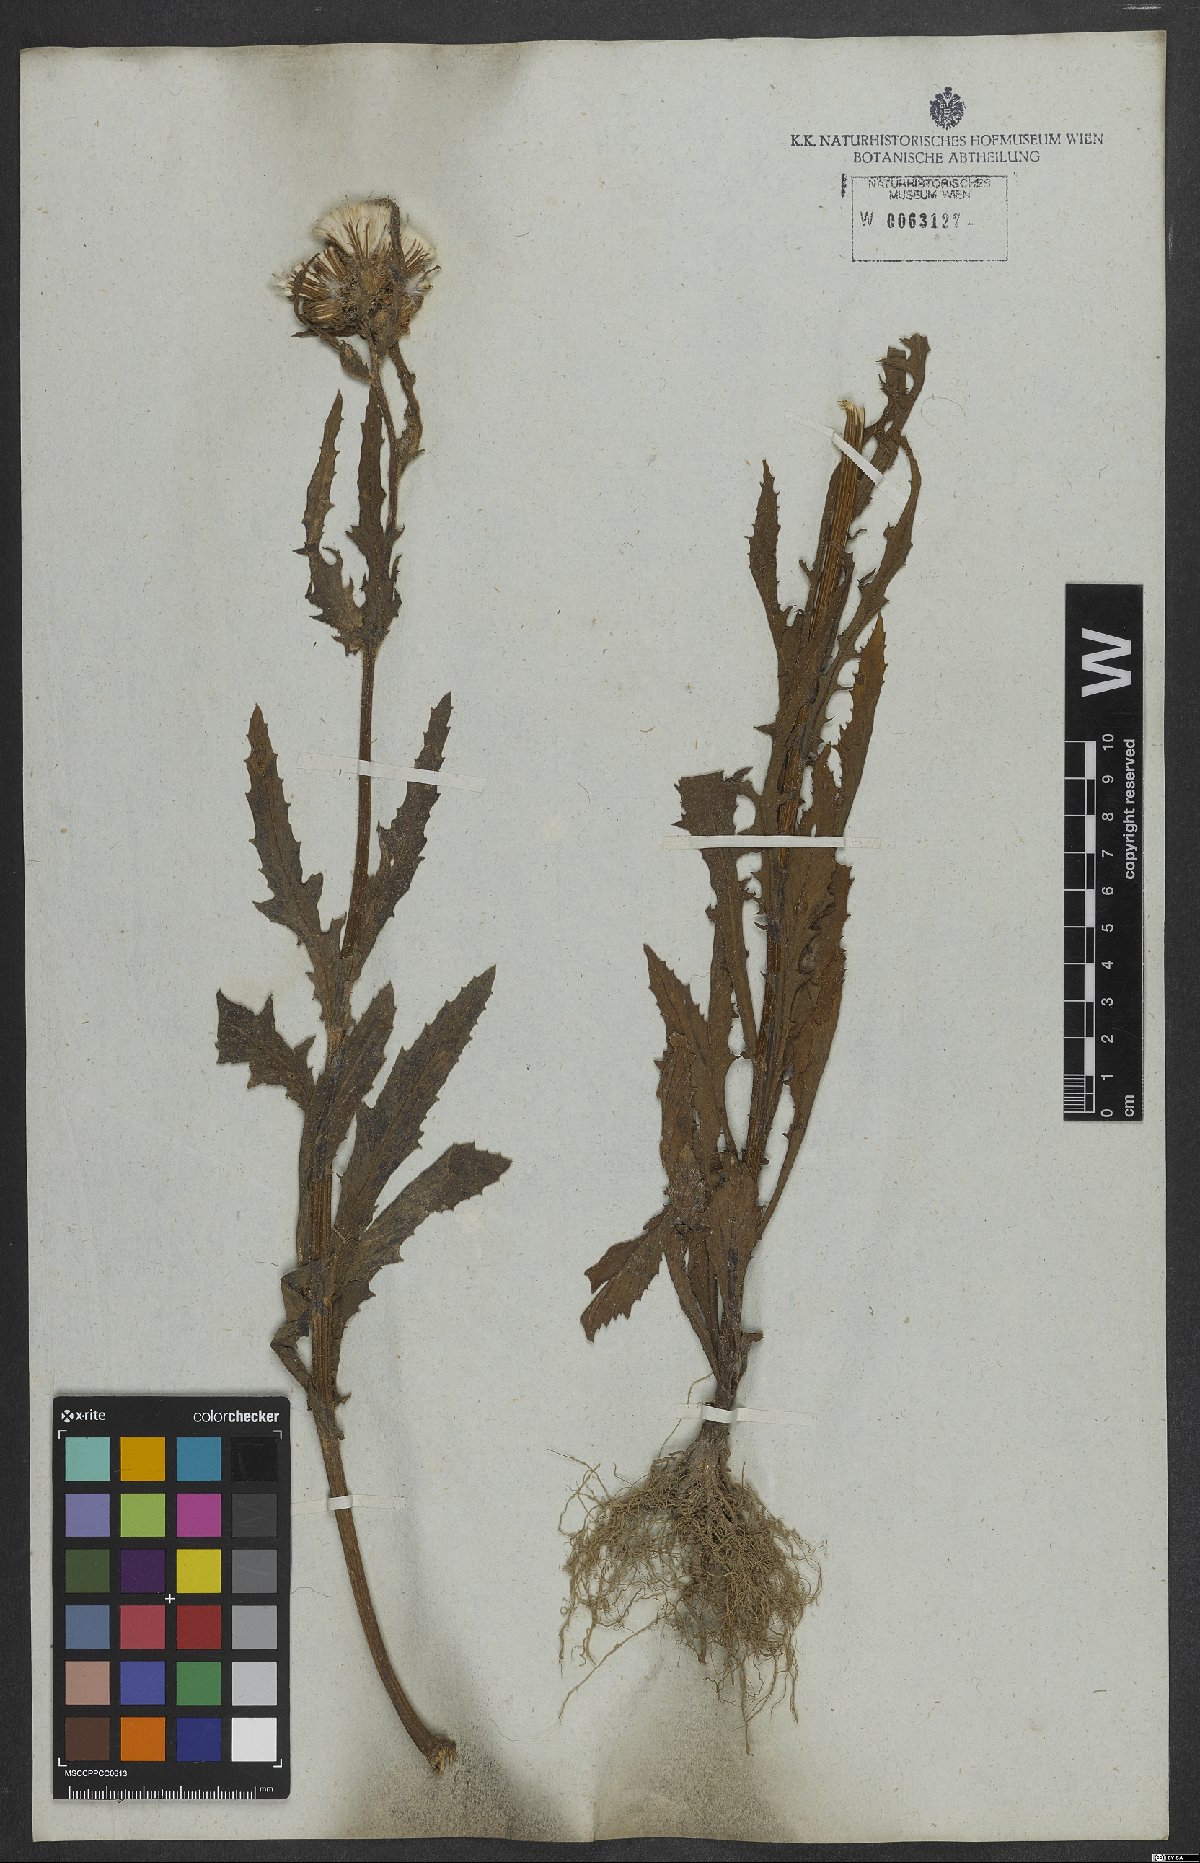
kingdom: Plantae
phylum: Tracheophyta
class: Magnoliopsida
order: Asterales
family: Asteraceae
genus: Erechtites
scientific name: Erechtites hieraciifolius
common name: American burnweed
